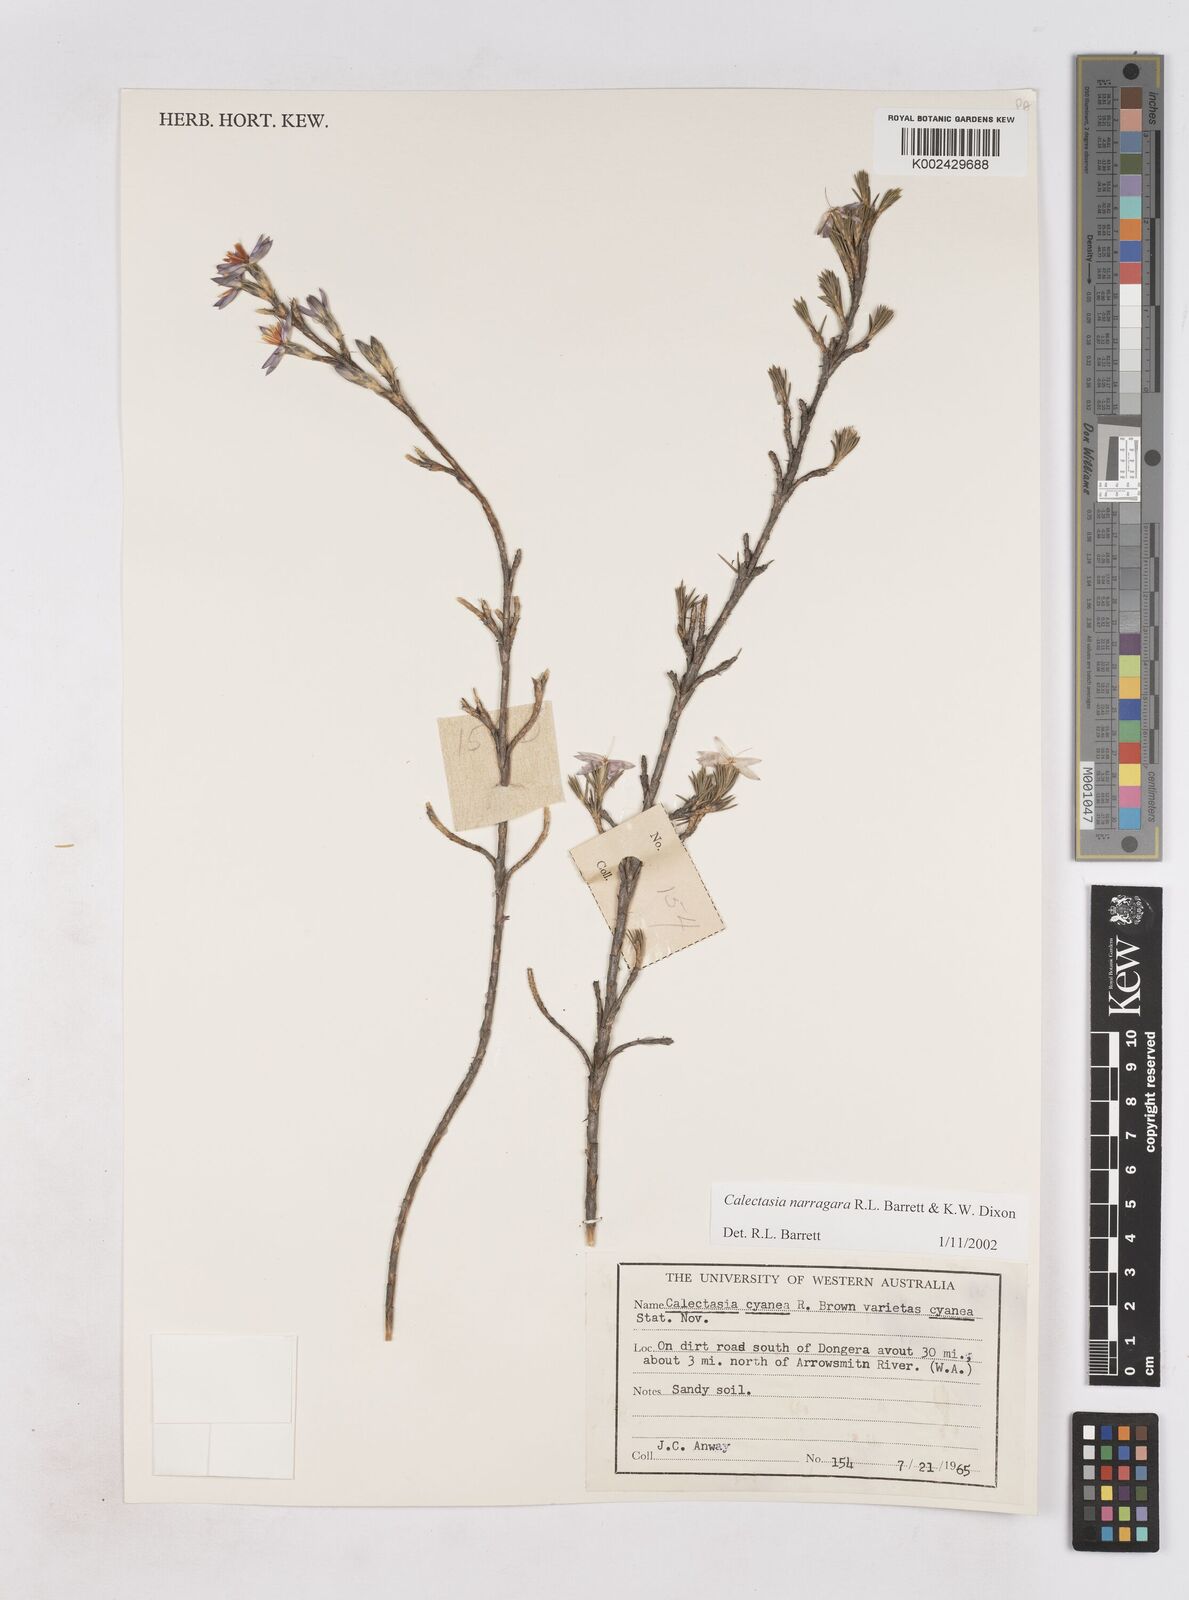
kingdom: Plantae
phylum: Tracheophyta
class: Liliopsida
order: Arecales
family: Dasypogonaceae
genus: Calectasia
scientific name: Calectasia narragara
